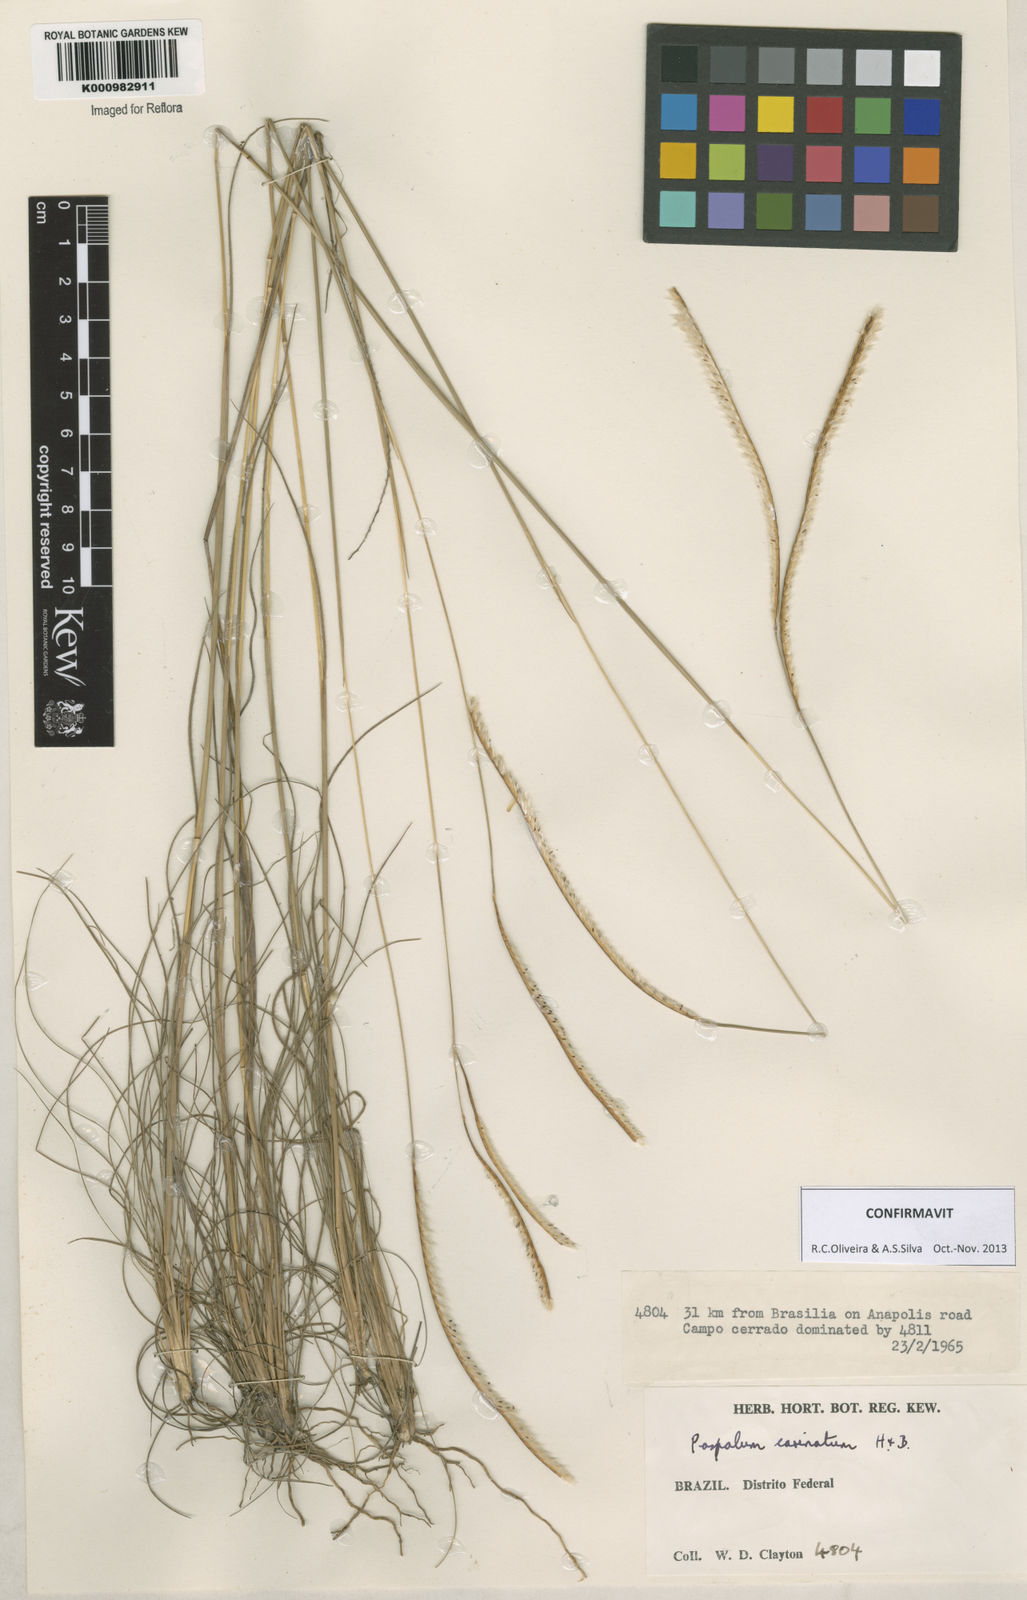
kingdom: Plantae
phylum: Tracheophyta
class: Liliopsida
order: Poales
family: Poaceae
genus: Paspalum
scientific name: Paspalum
